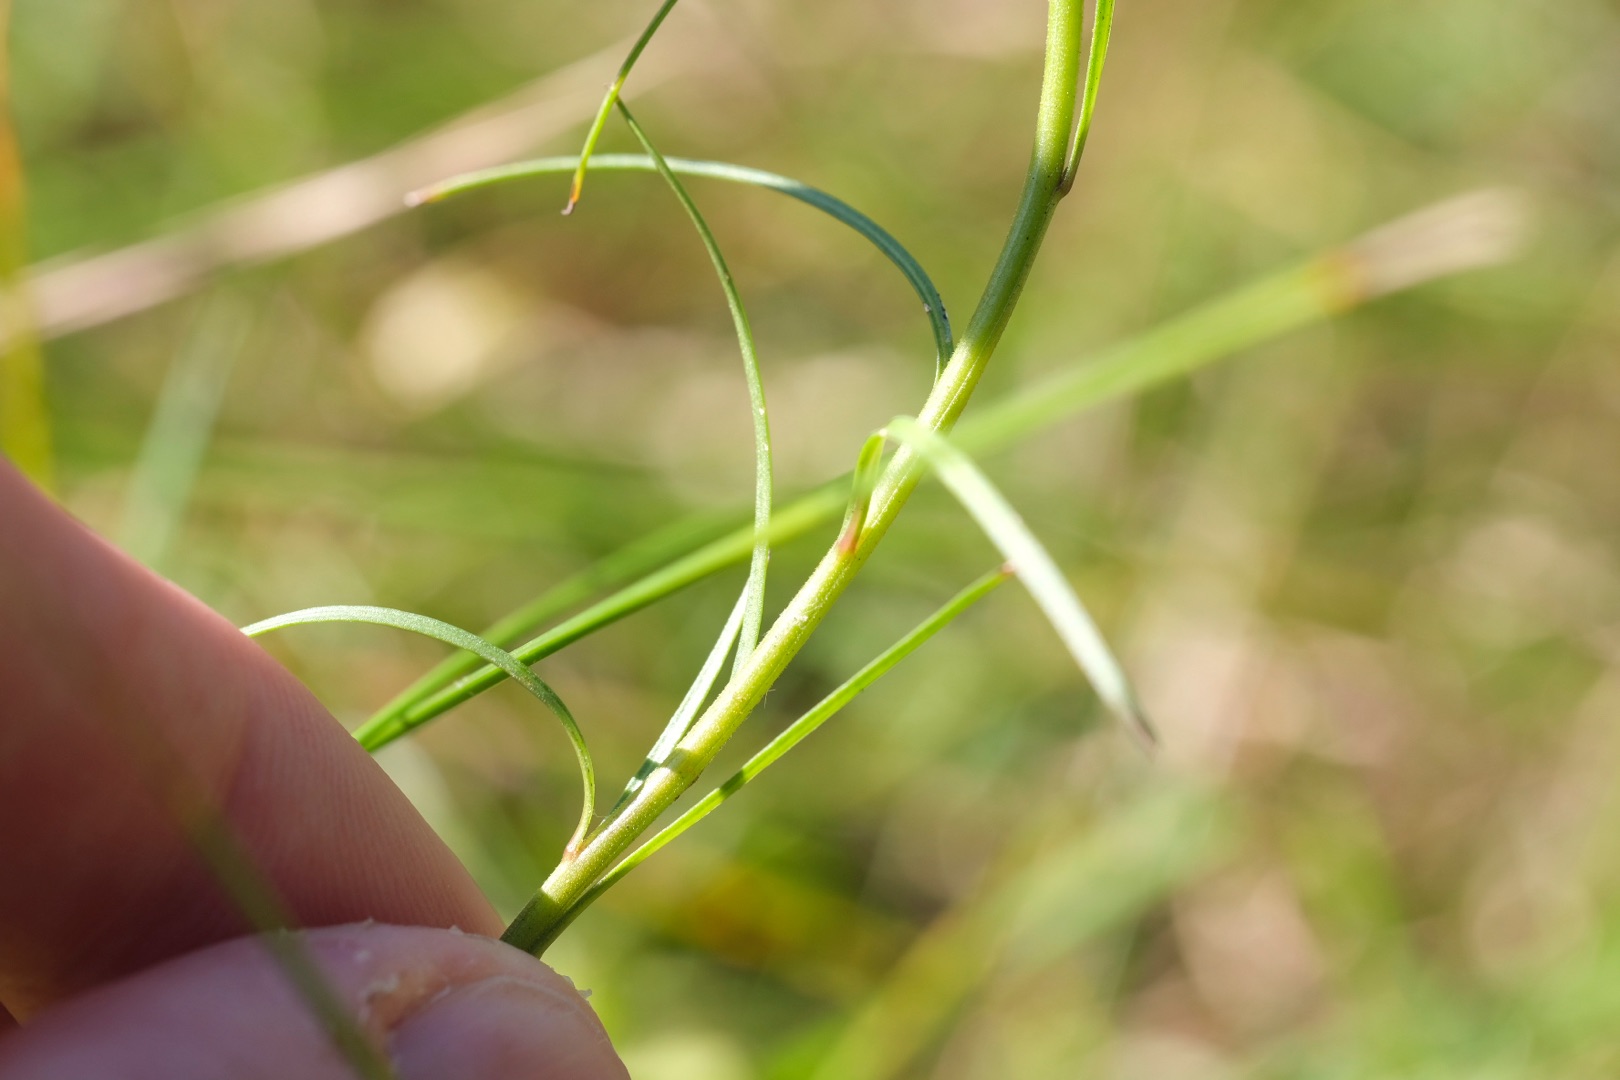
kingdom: Plantae
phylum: Tracheophyta
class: Magnoliopsida
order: Asterales
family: Campanulaceae
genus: Campanula
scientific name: Campanula rotundifolia
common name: Liden klokke
